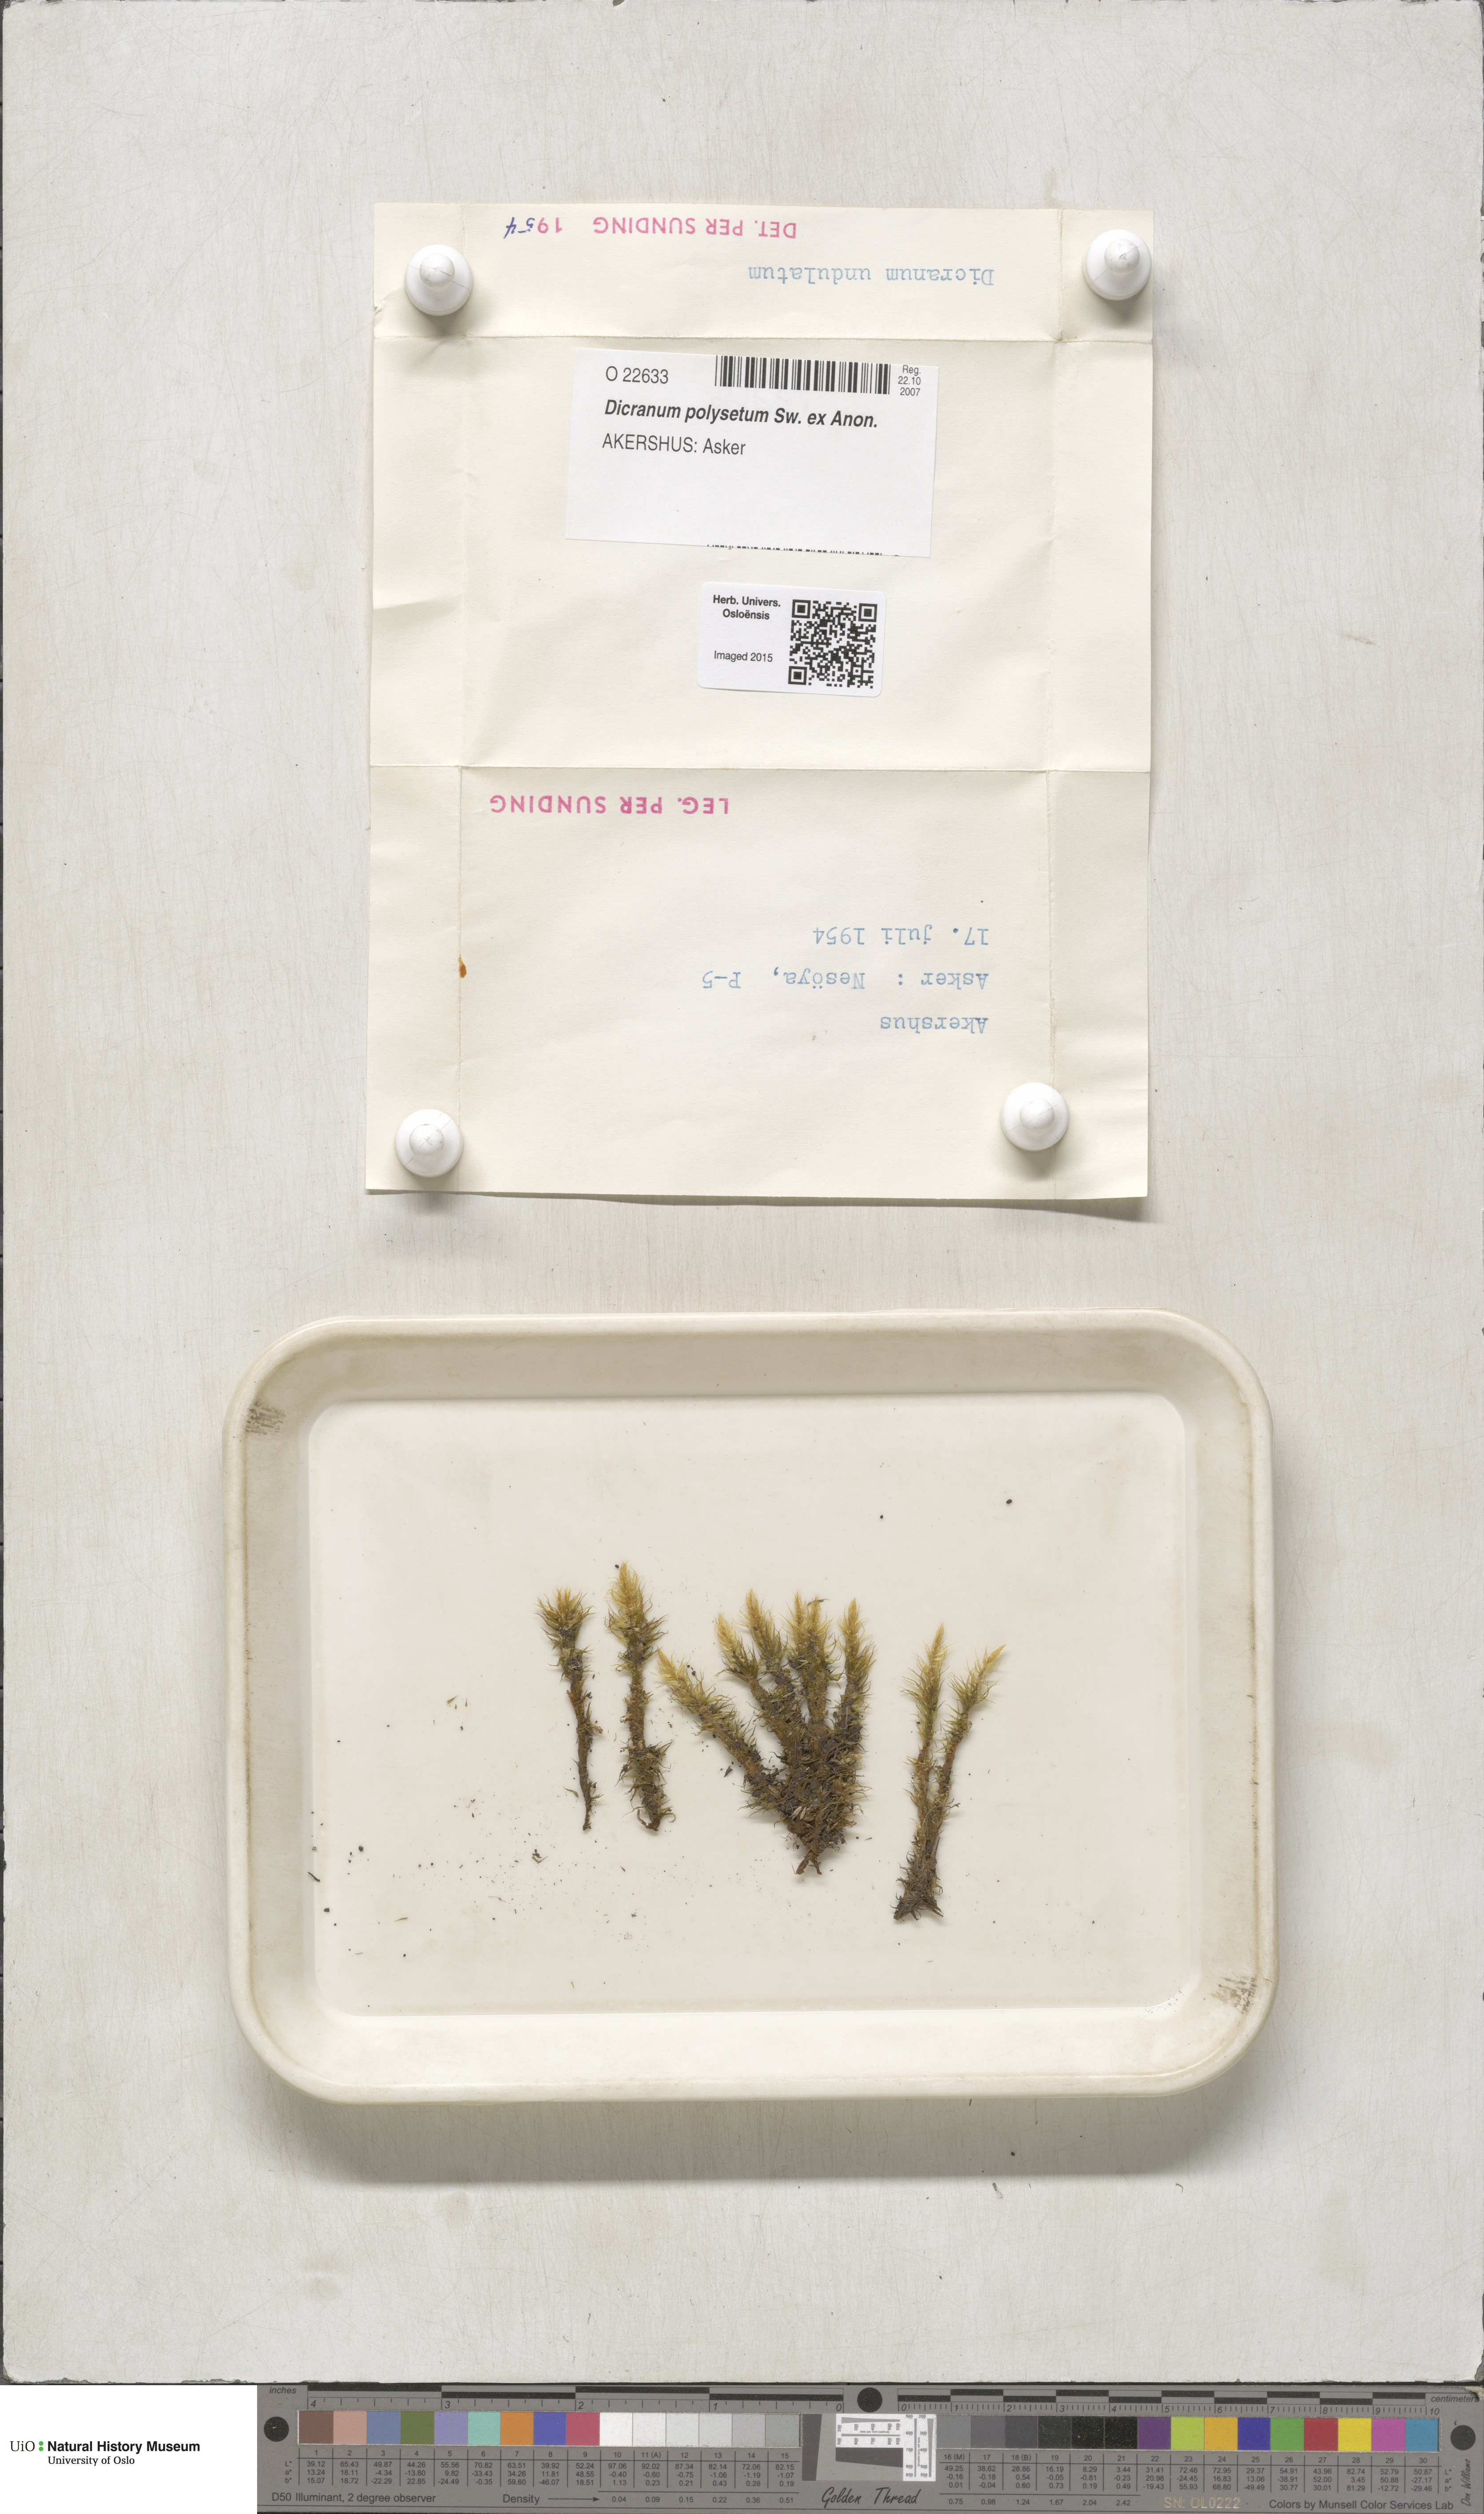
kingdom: Plantae
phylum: Bryophyta
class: Bryopsida
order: Dicranales
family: Dicranaceae
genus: Dicranum
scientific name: Dicranum undulatum
